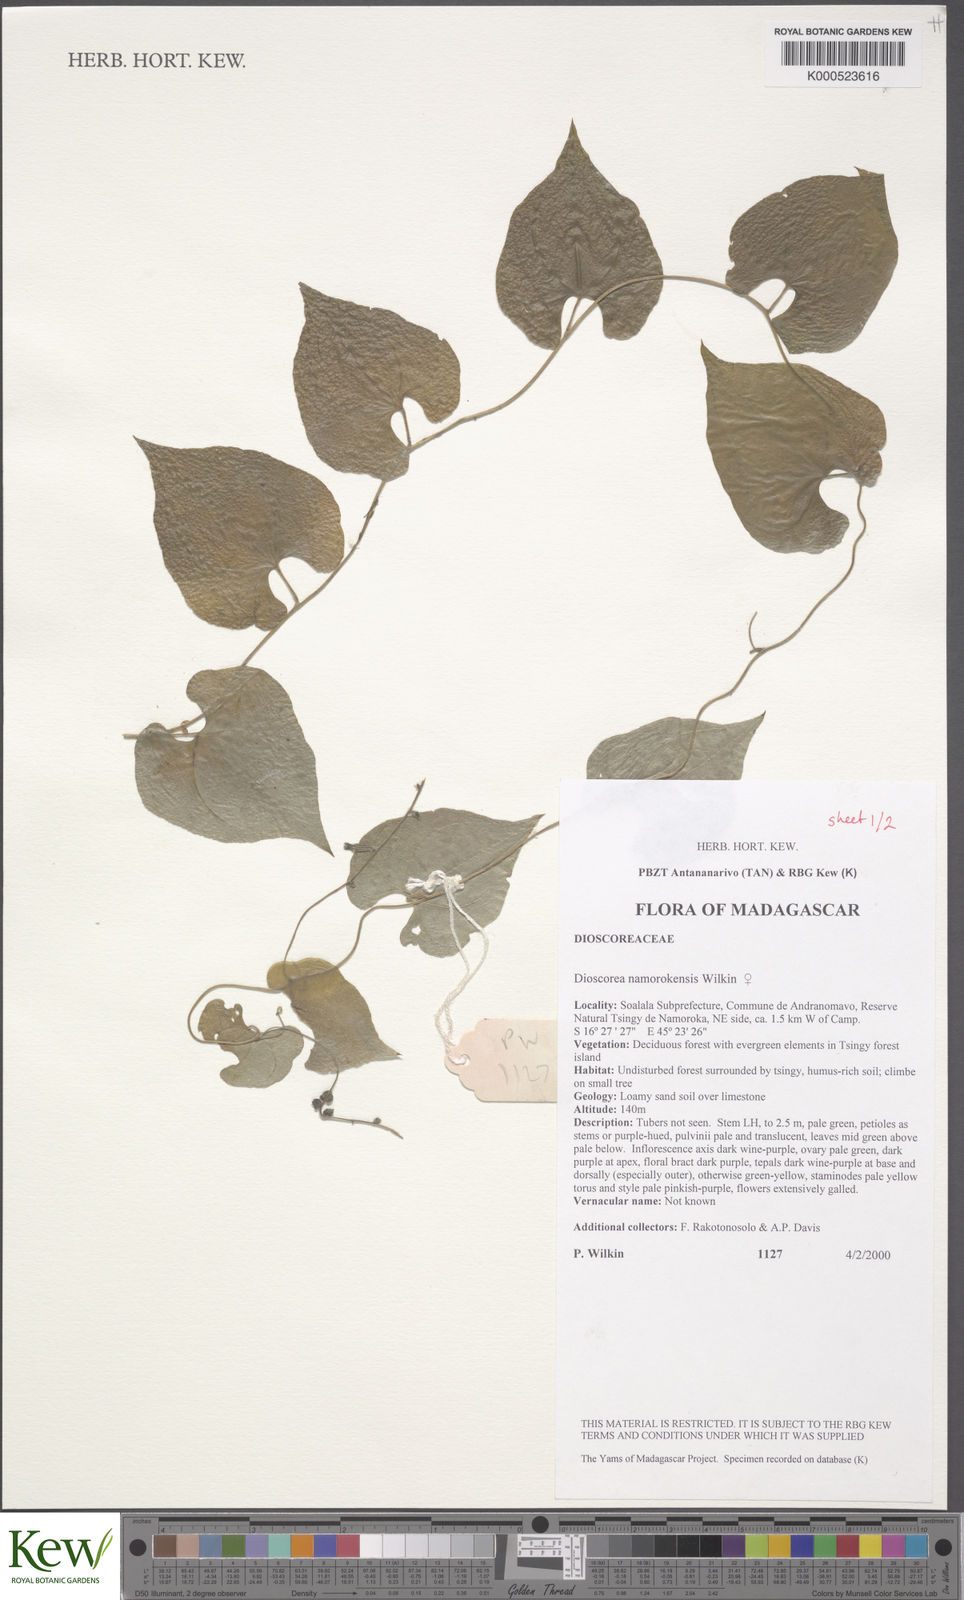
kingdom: Plantae
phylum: Tracheophyta
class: Liliopsida
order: Dioscoreales
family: Dioscoreaceae
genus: Dioscorea
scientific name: Dioscorea namorokensis
